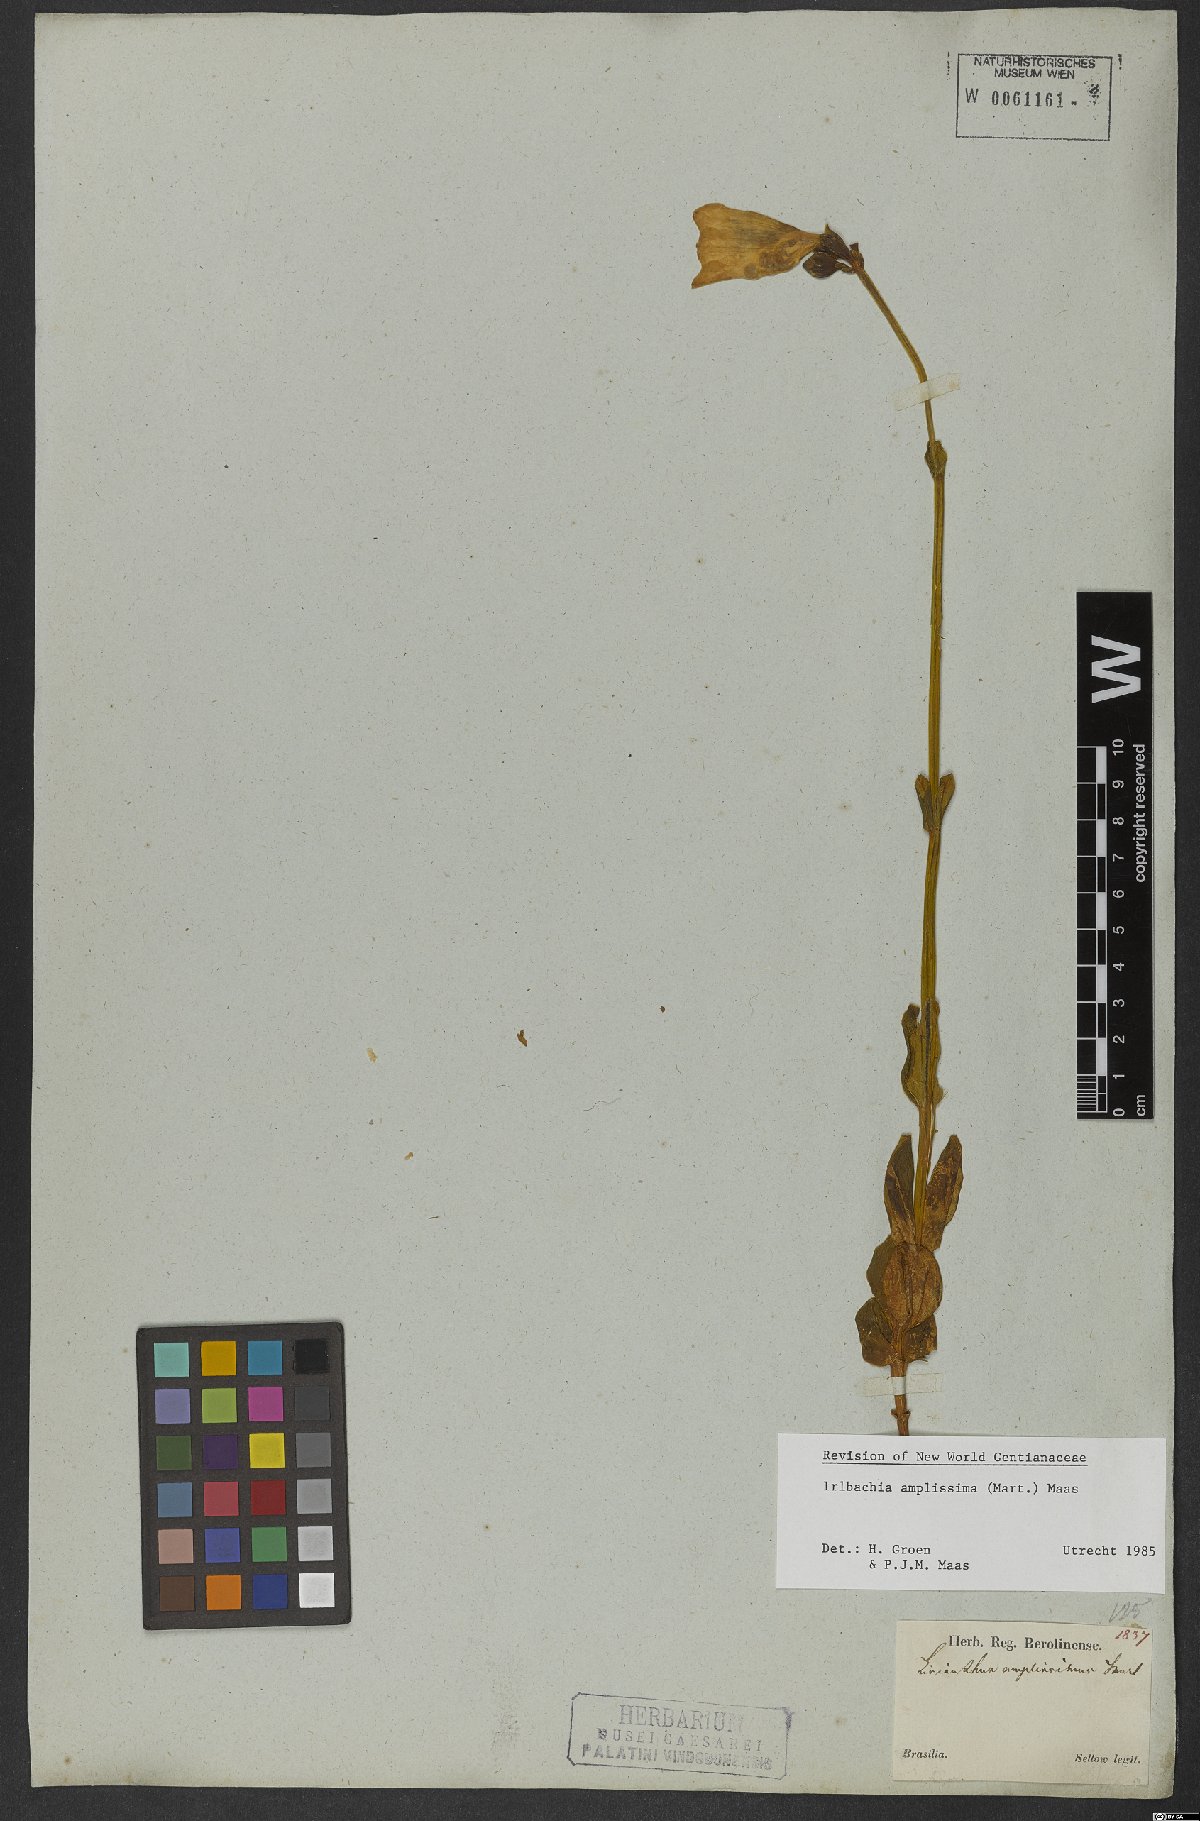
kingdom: Plantae
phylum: Tracheophyta
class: Magnoliopsida
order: Gentianales
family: Gentianaceae
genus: Calolisianthus
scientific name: Calolisianthus amplissimus
